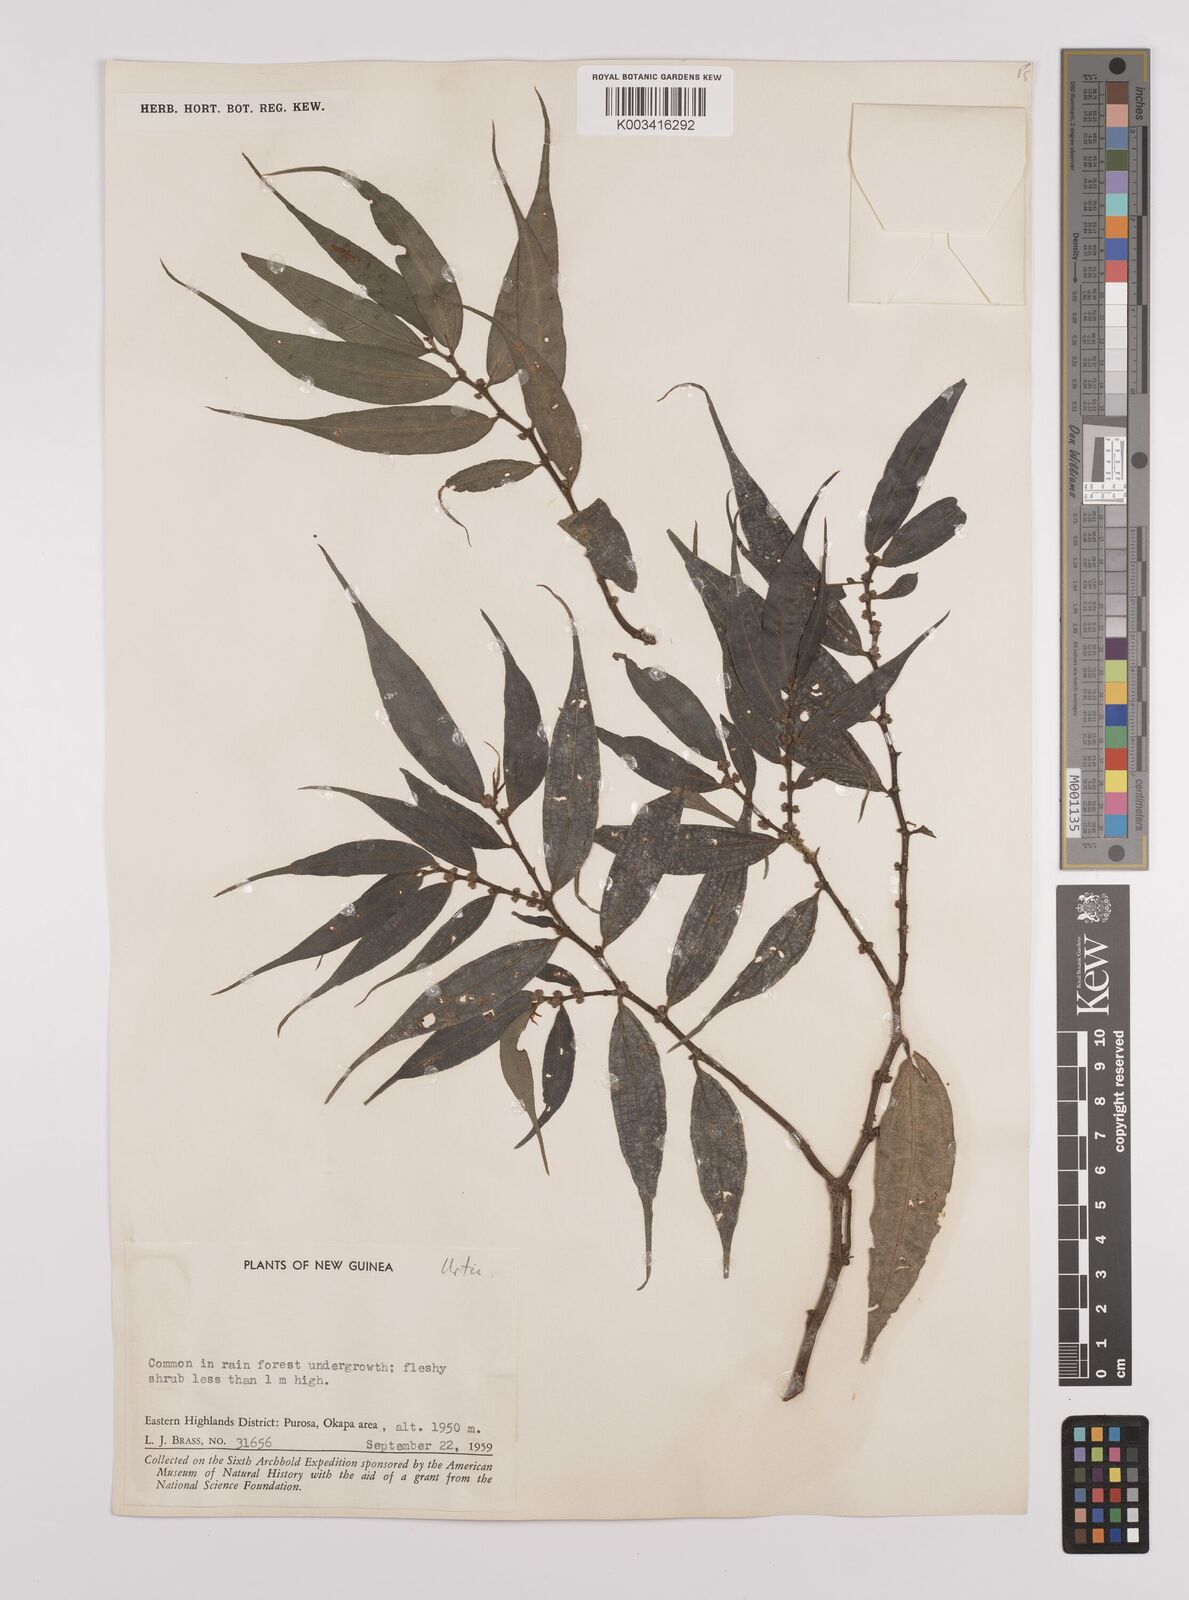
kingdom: Plantae
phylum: Tracheophyta
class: Magnoliopsida
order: Rosales
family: Urticaceae
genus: Elatostema
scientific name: Elatostema integrifolium
